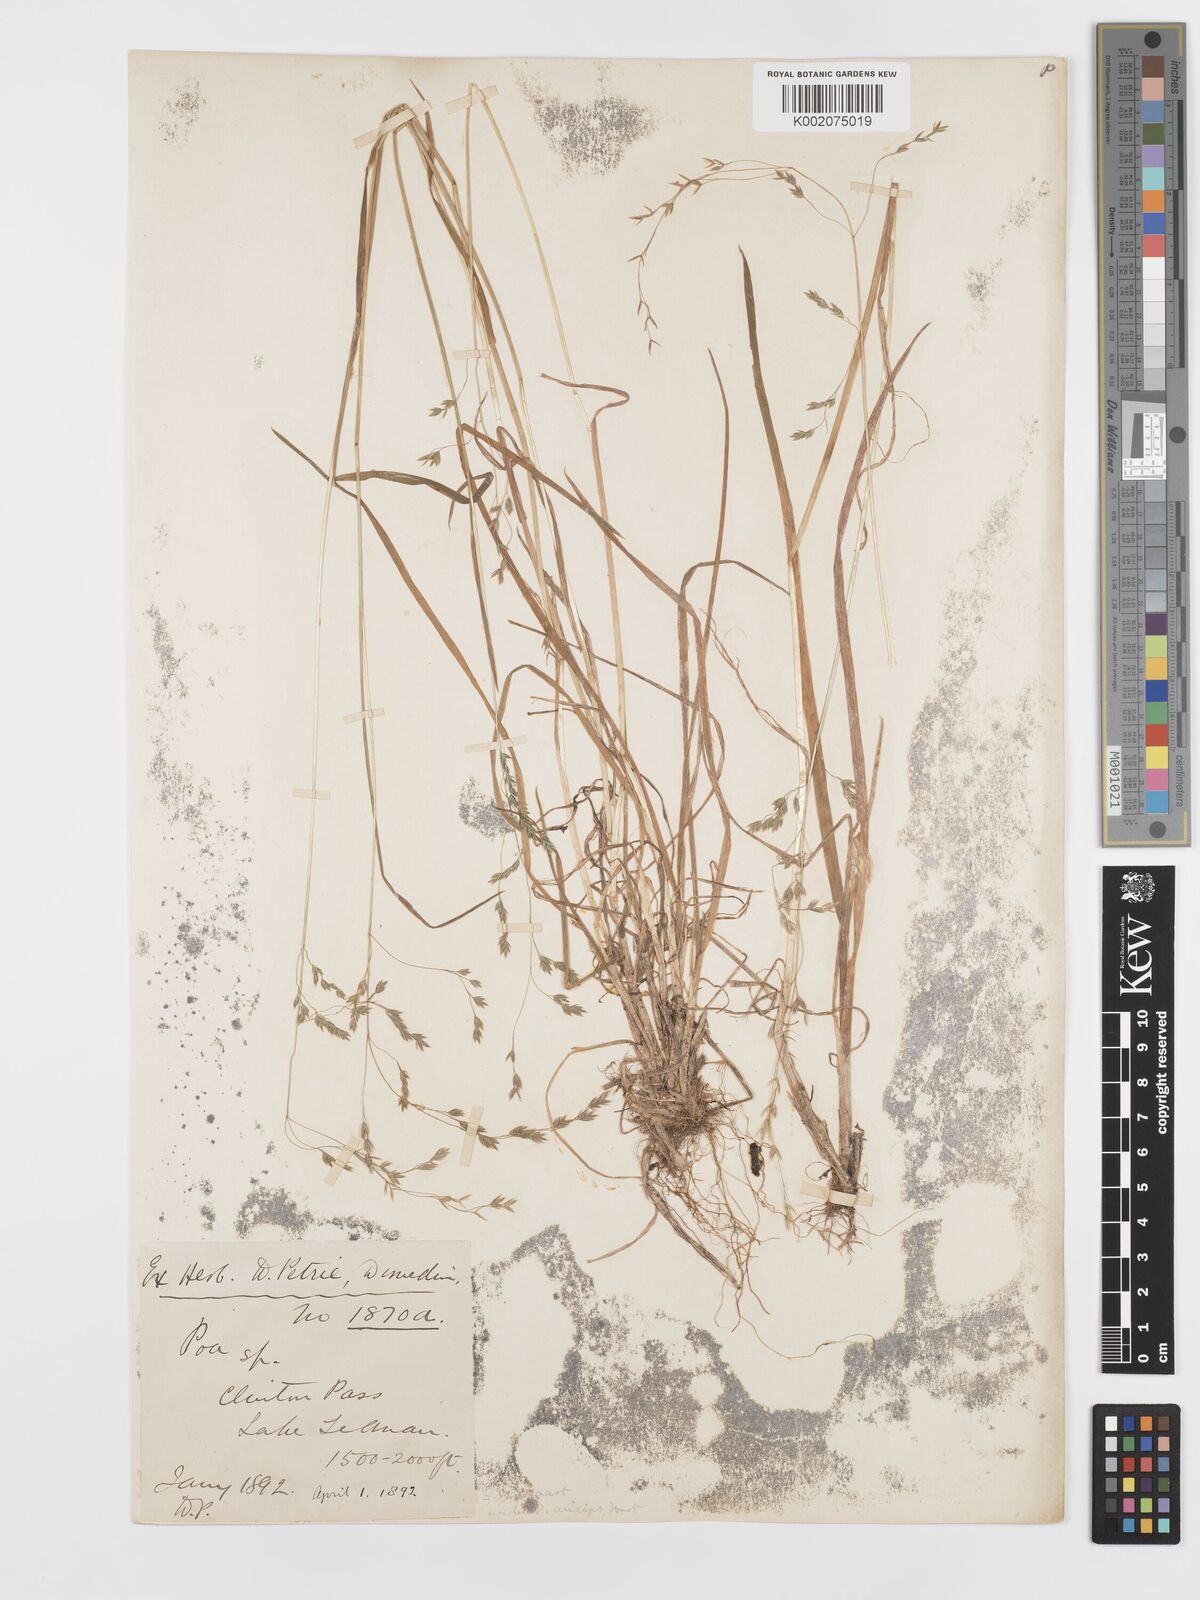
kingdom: Plantae
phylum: Tracheophyta
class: Liliopsida
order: Poales
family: Poaceae
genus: Poa
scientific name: Poa kirkii
